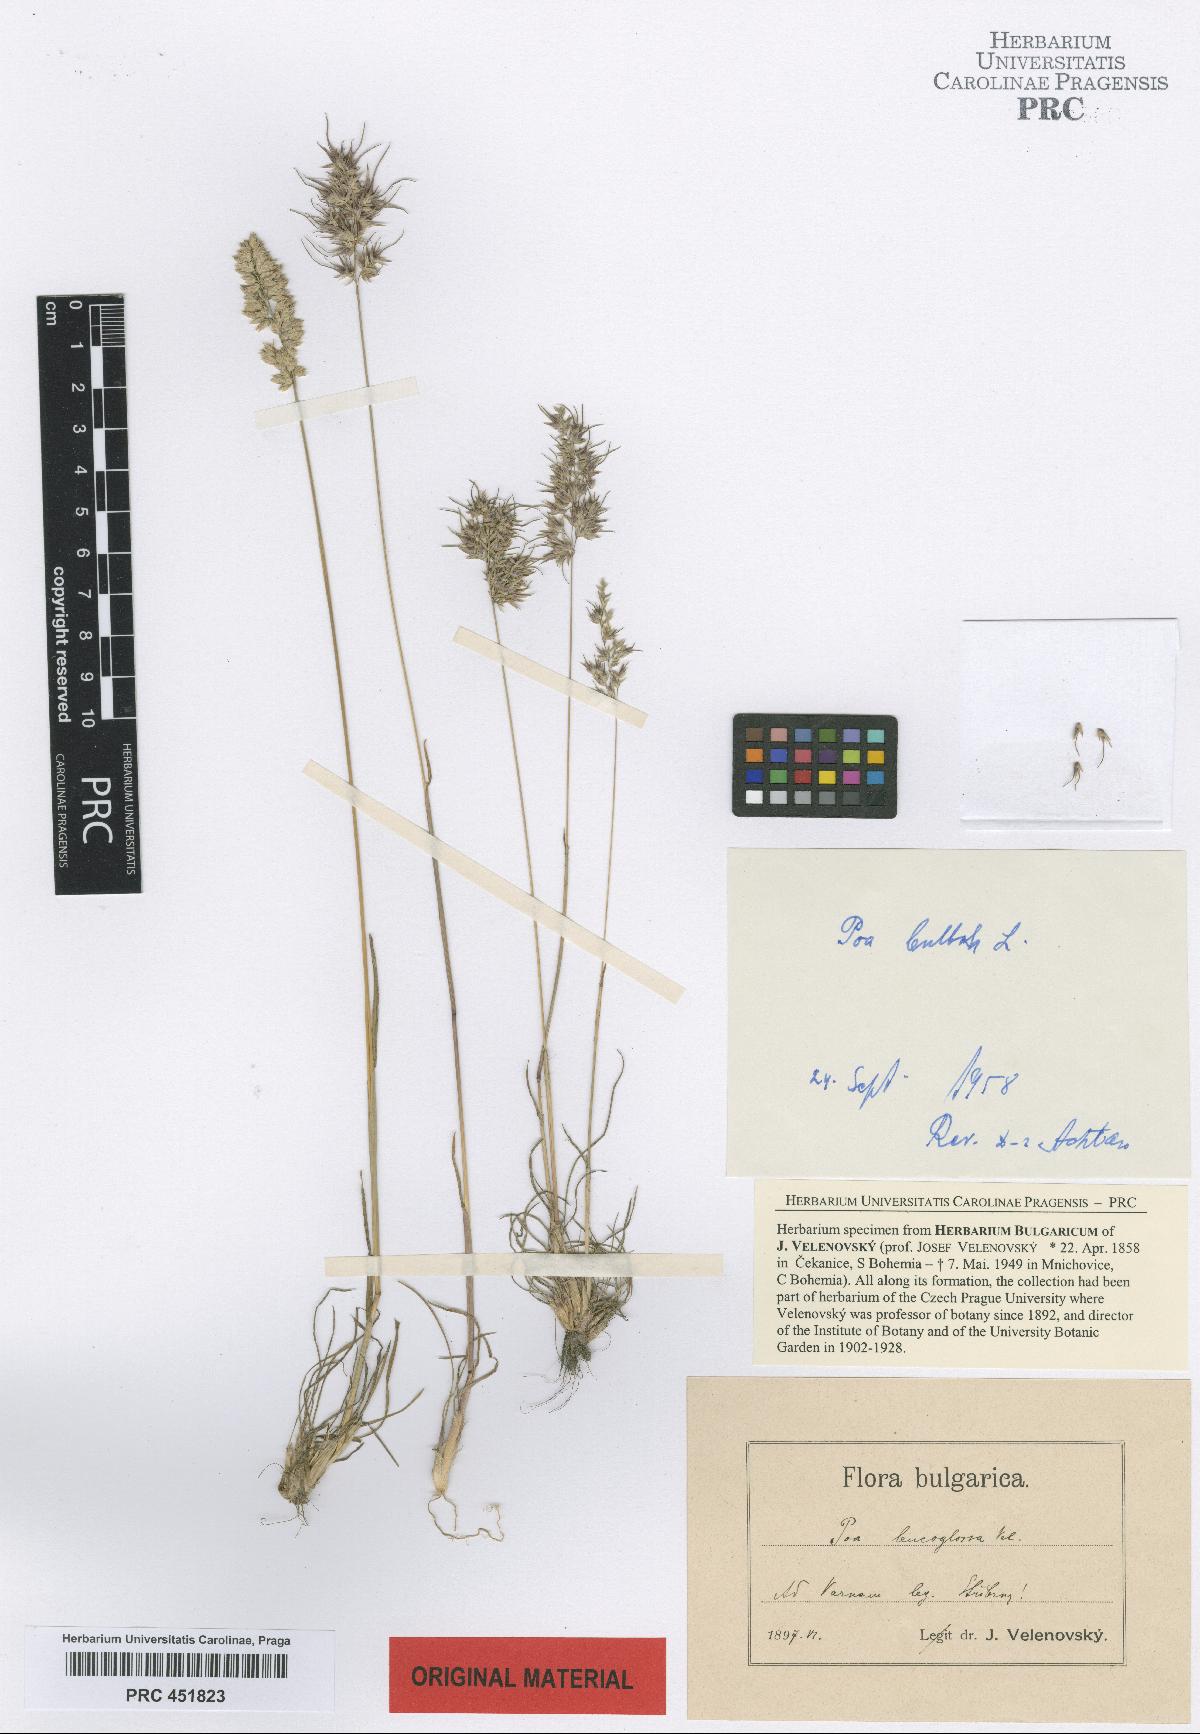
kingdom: Plantae
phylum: Tracheophyta
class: Liliopsida
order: Poales
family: Poaceae
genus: Poa
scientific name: Poa bulbosa
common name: Bulbous bluegrass
